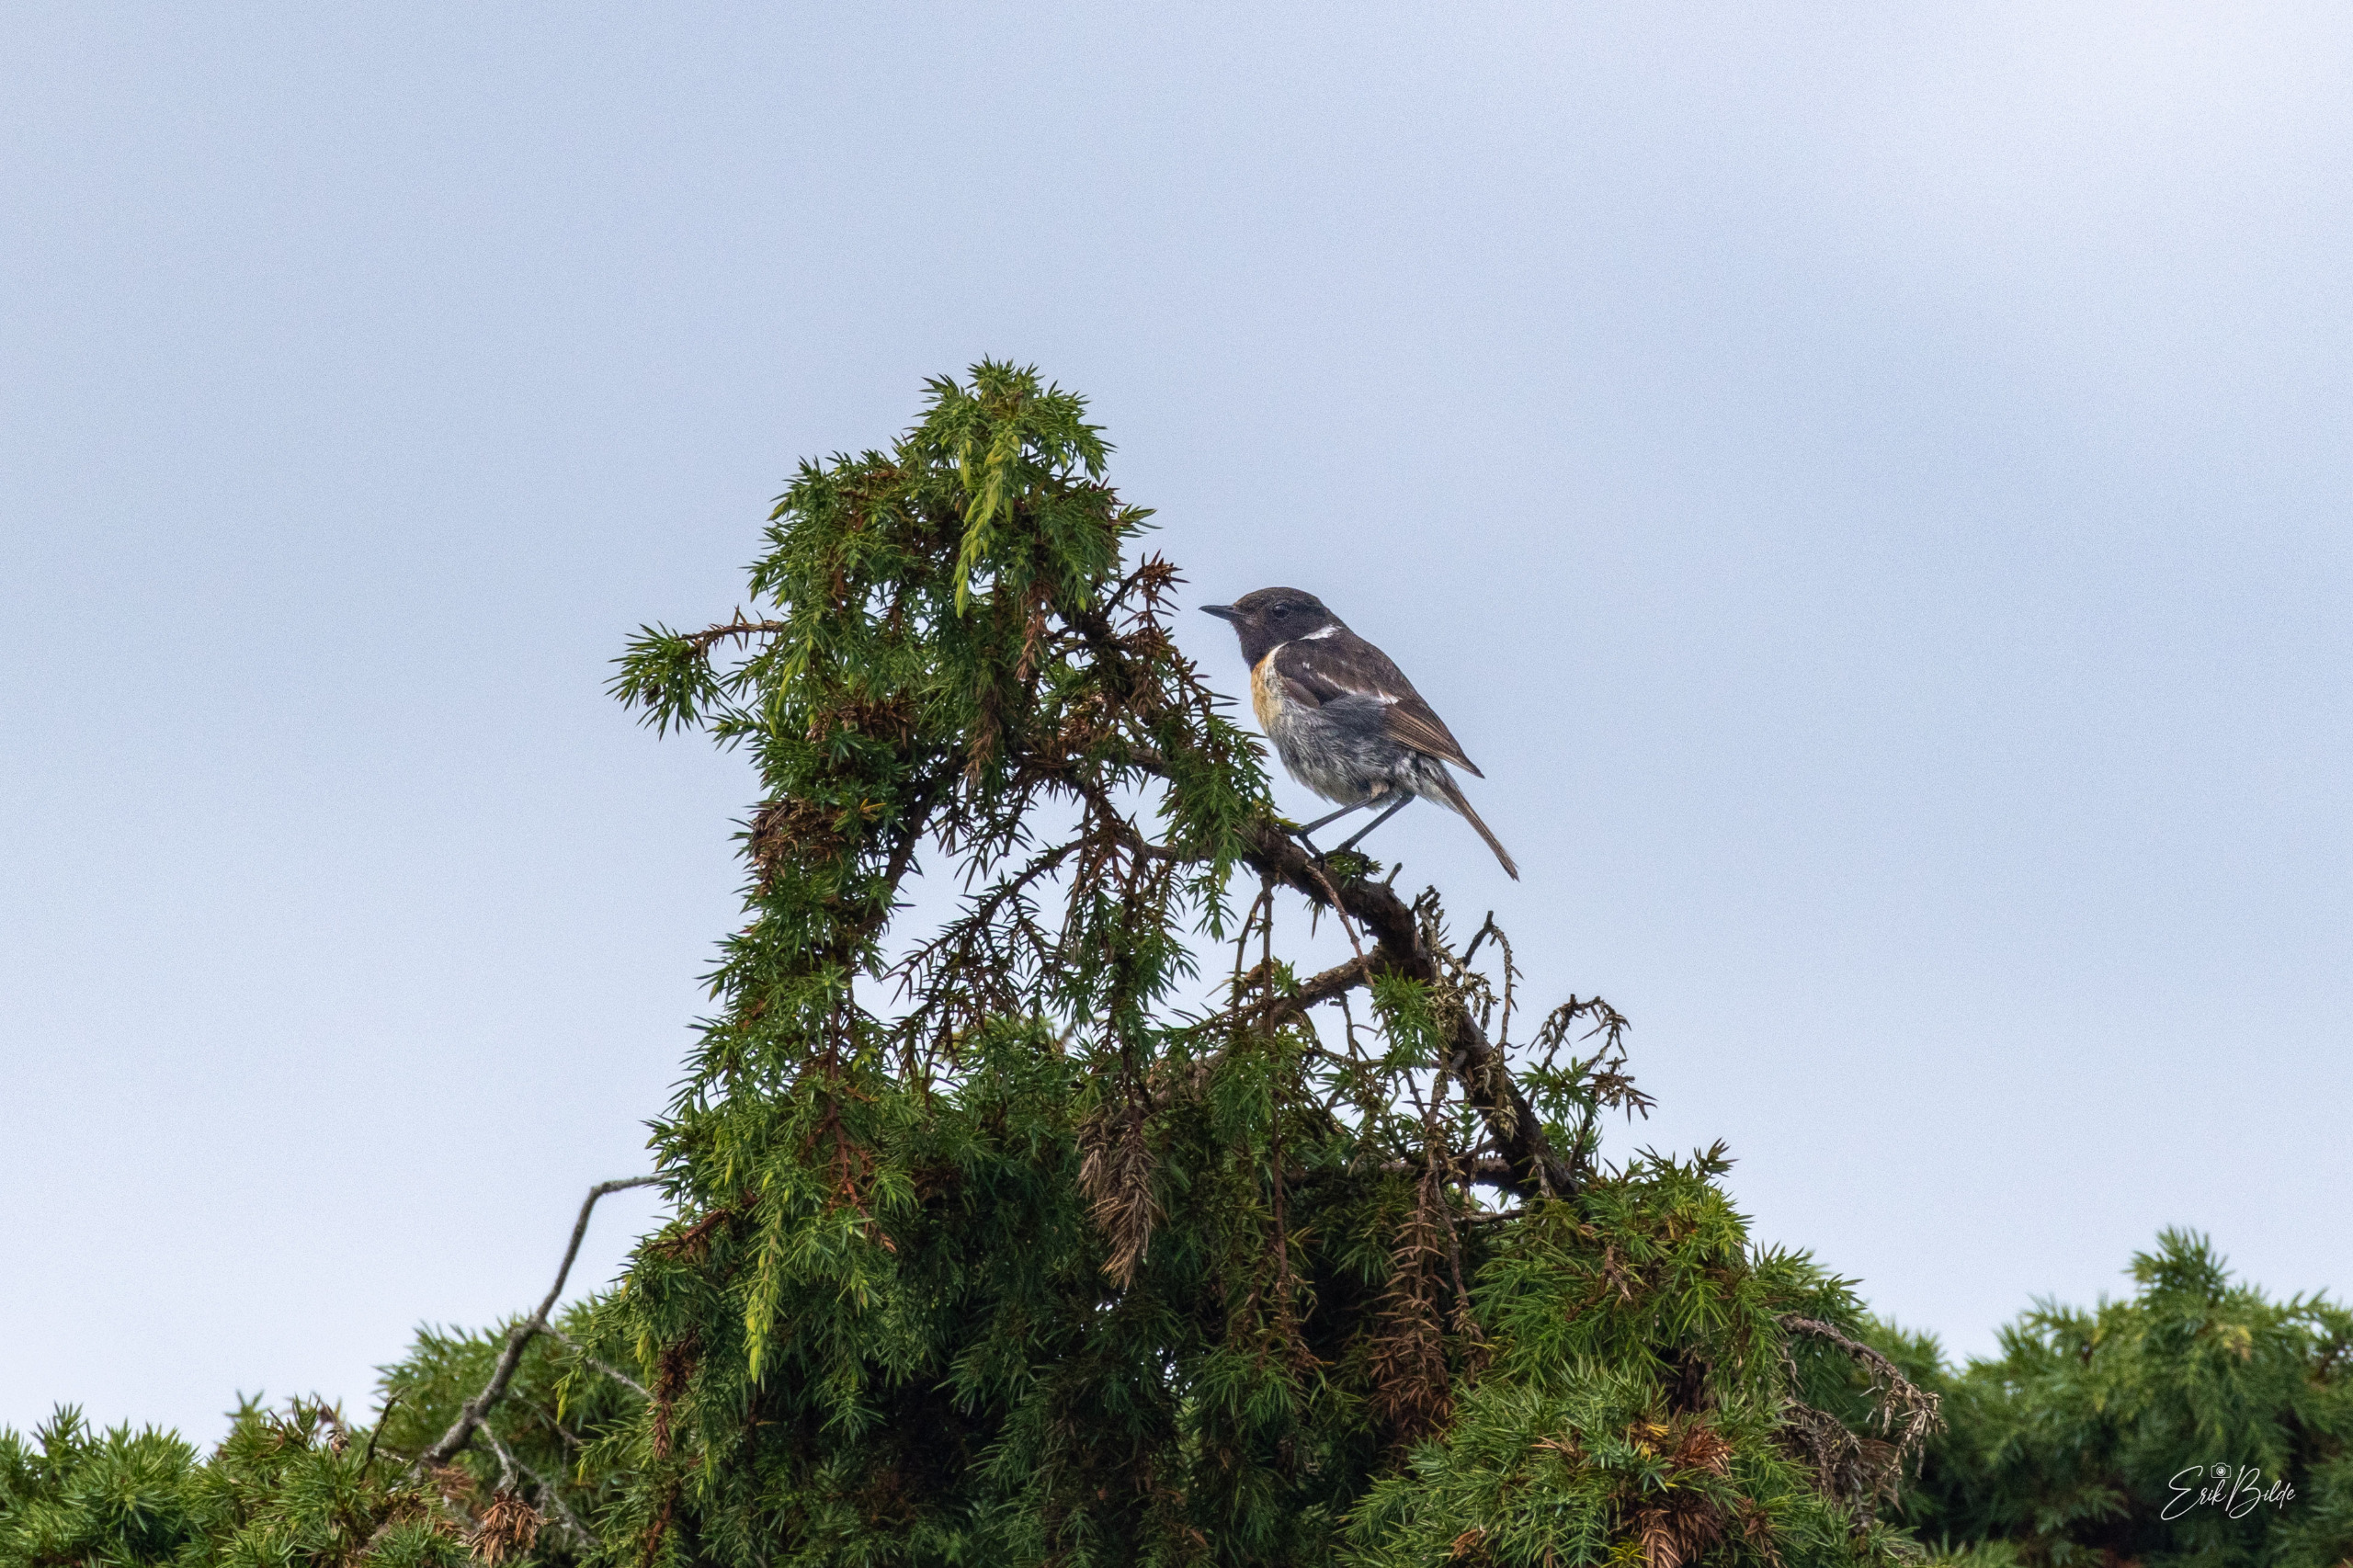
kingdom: Animalia
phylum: Chordata
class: Aves
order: Passeriformes
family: Muscicapidae
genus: Saxicola
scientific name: Saxicola rubicola
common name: Sortstrubet bynkefugl
